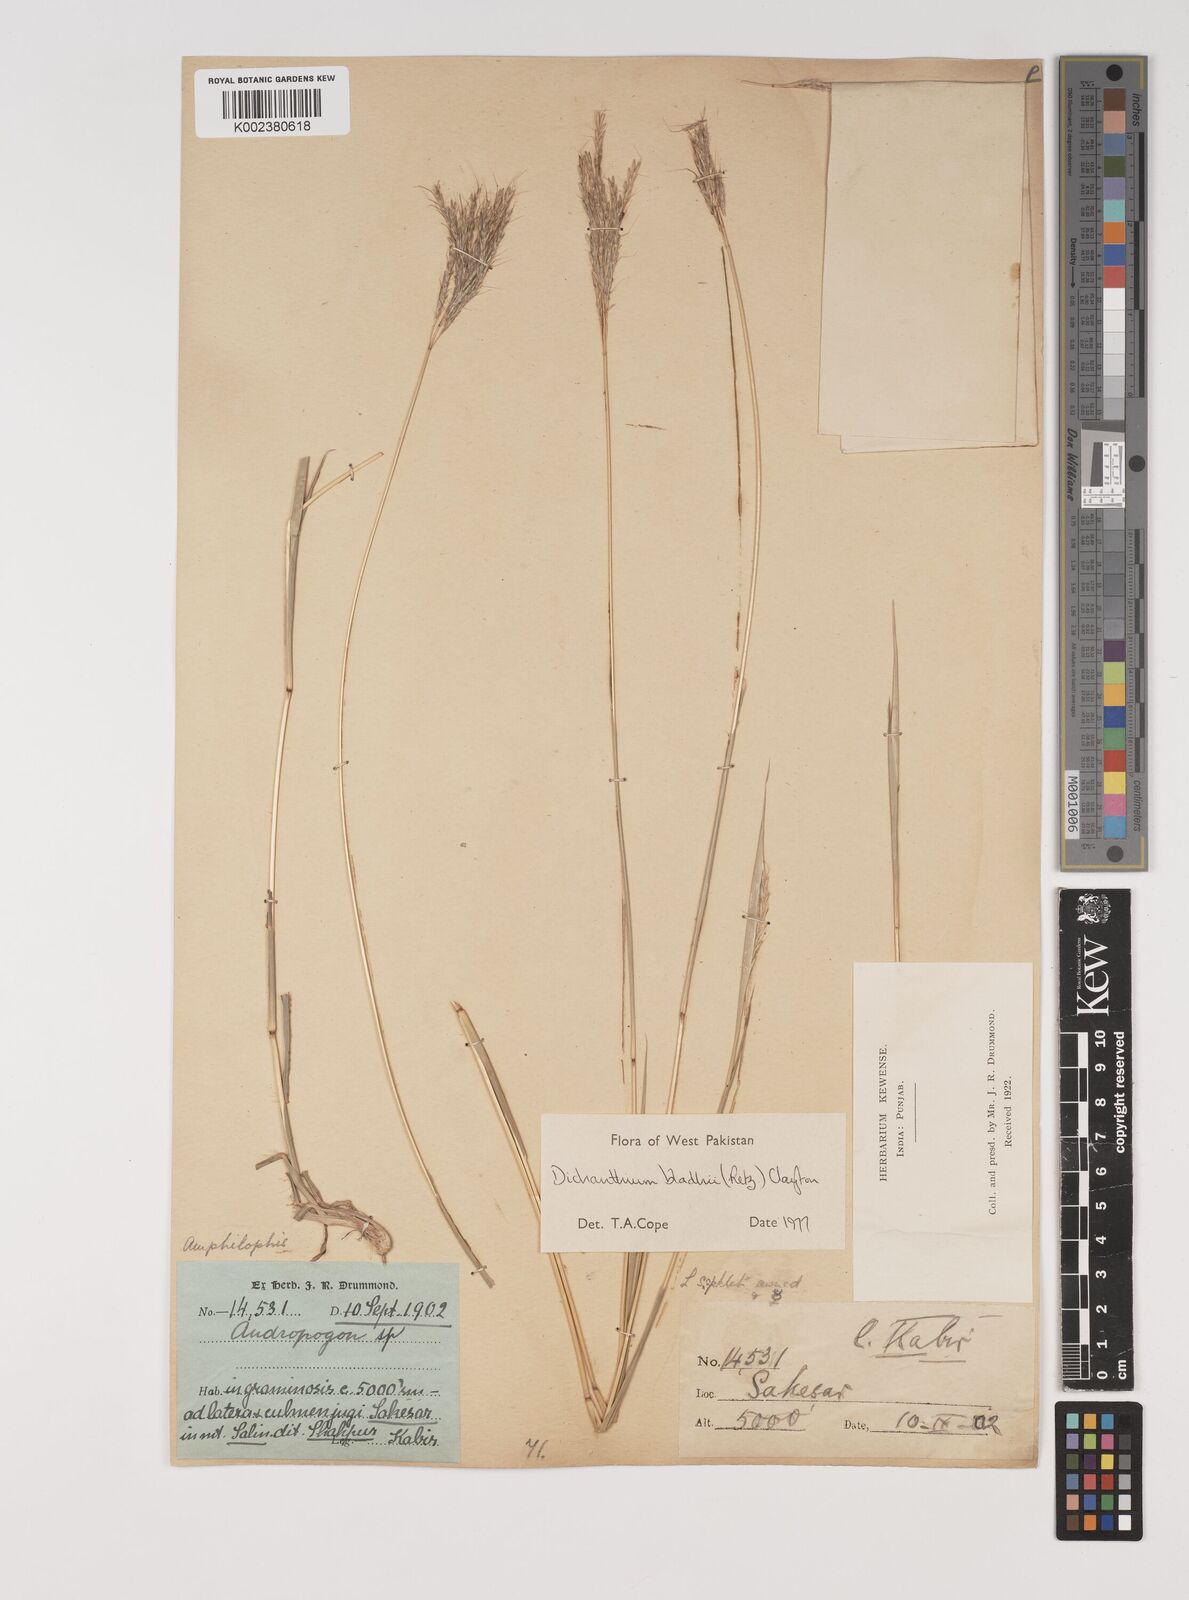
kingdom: Plantae
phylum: Tracheophyta
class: Liliopsida
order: Poales
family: Poaceae
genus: Bothriochloa
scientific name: Bothriochloa bladhii
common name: Caucasian bluestem
